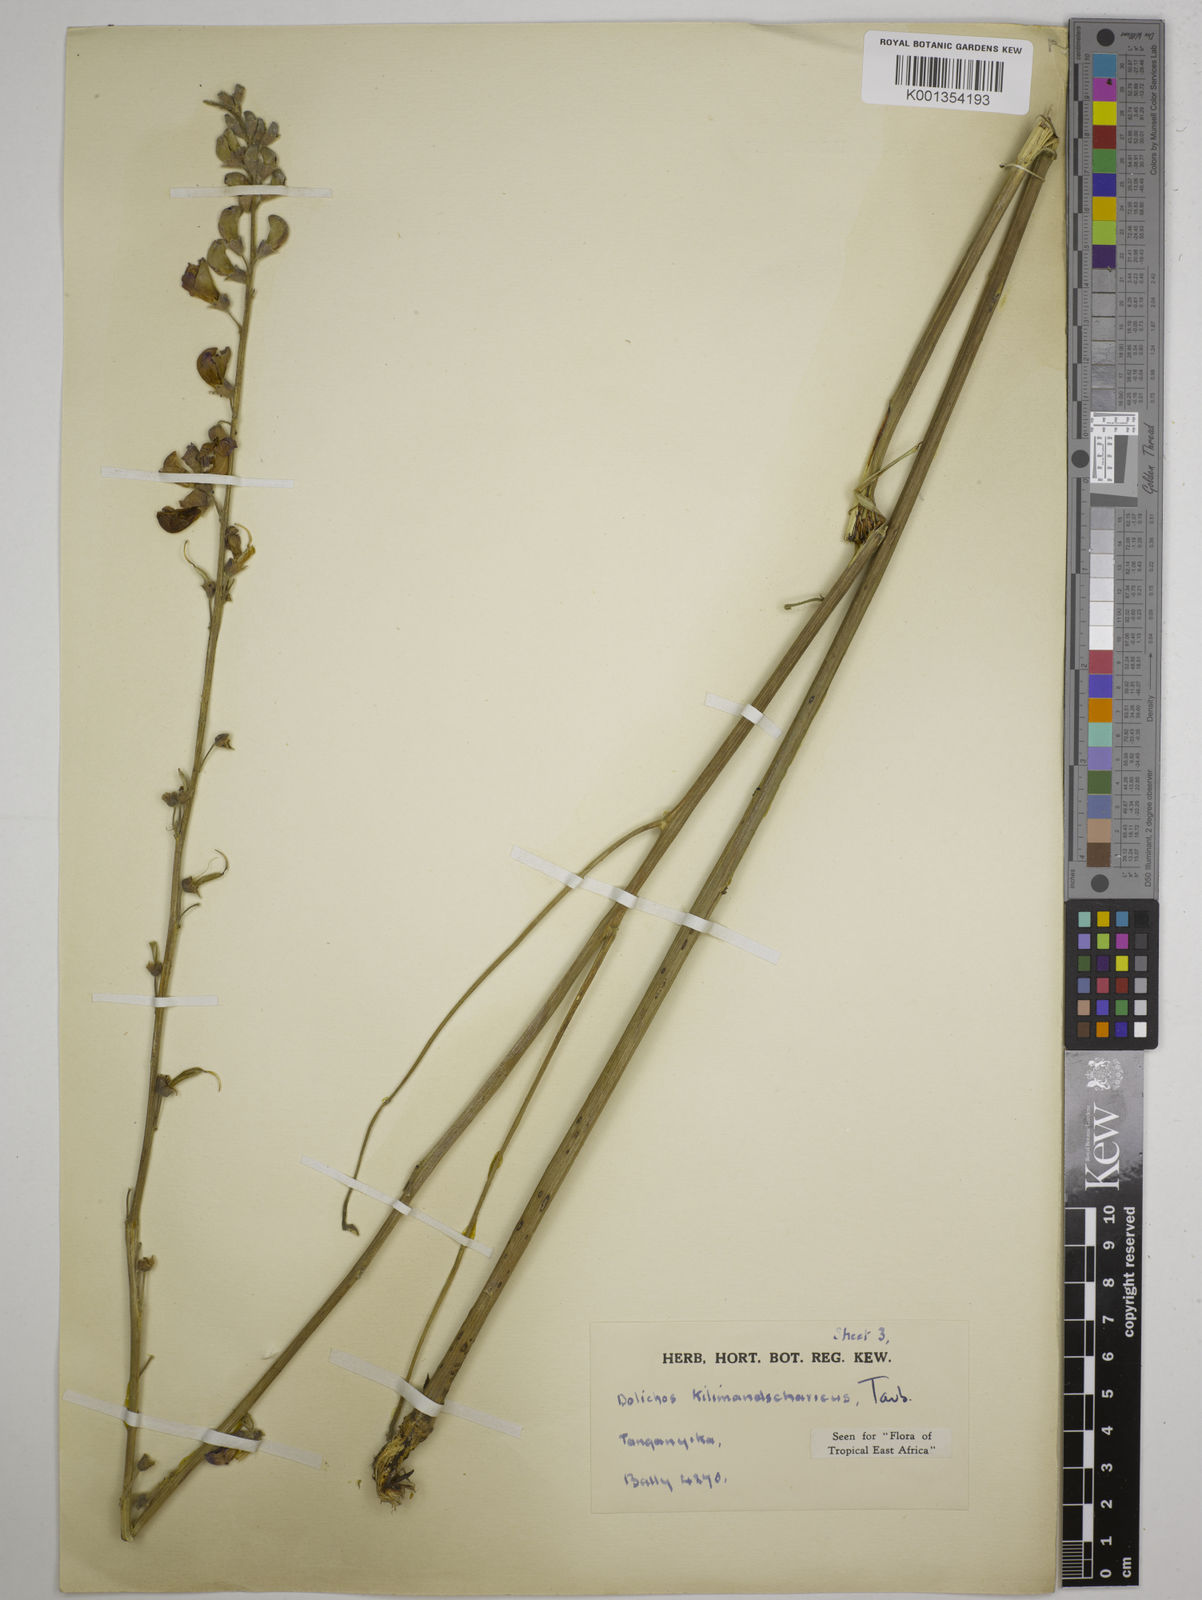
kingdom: Plantae
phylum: Tracheophyta
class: Magnoliopsida
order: Fabales
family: Fabaceae
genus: Dolichos
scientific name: Dolichos kilimandscharicus
